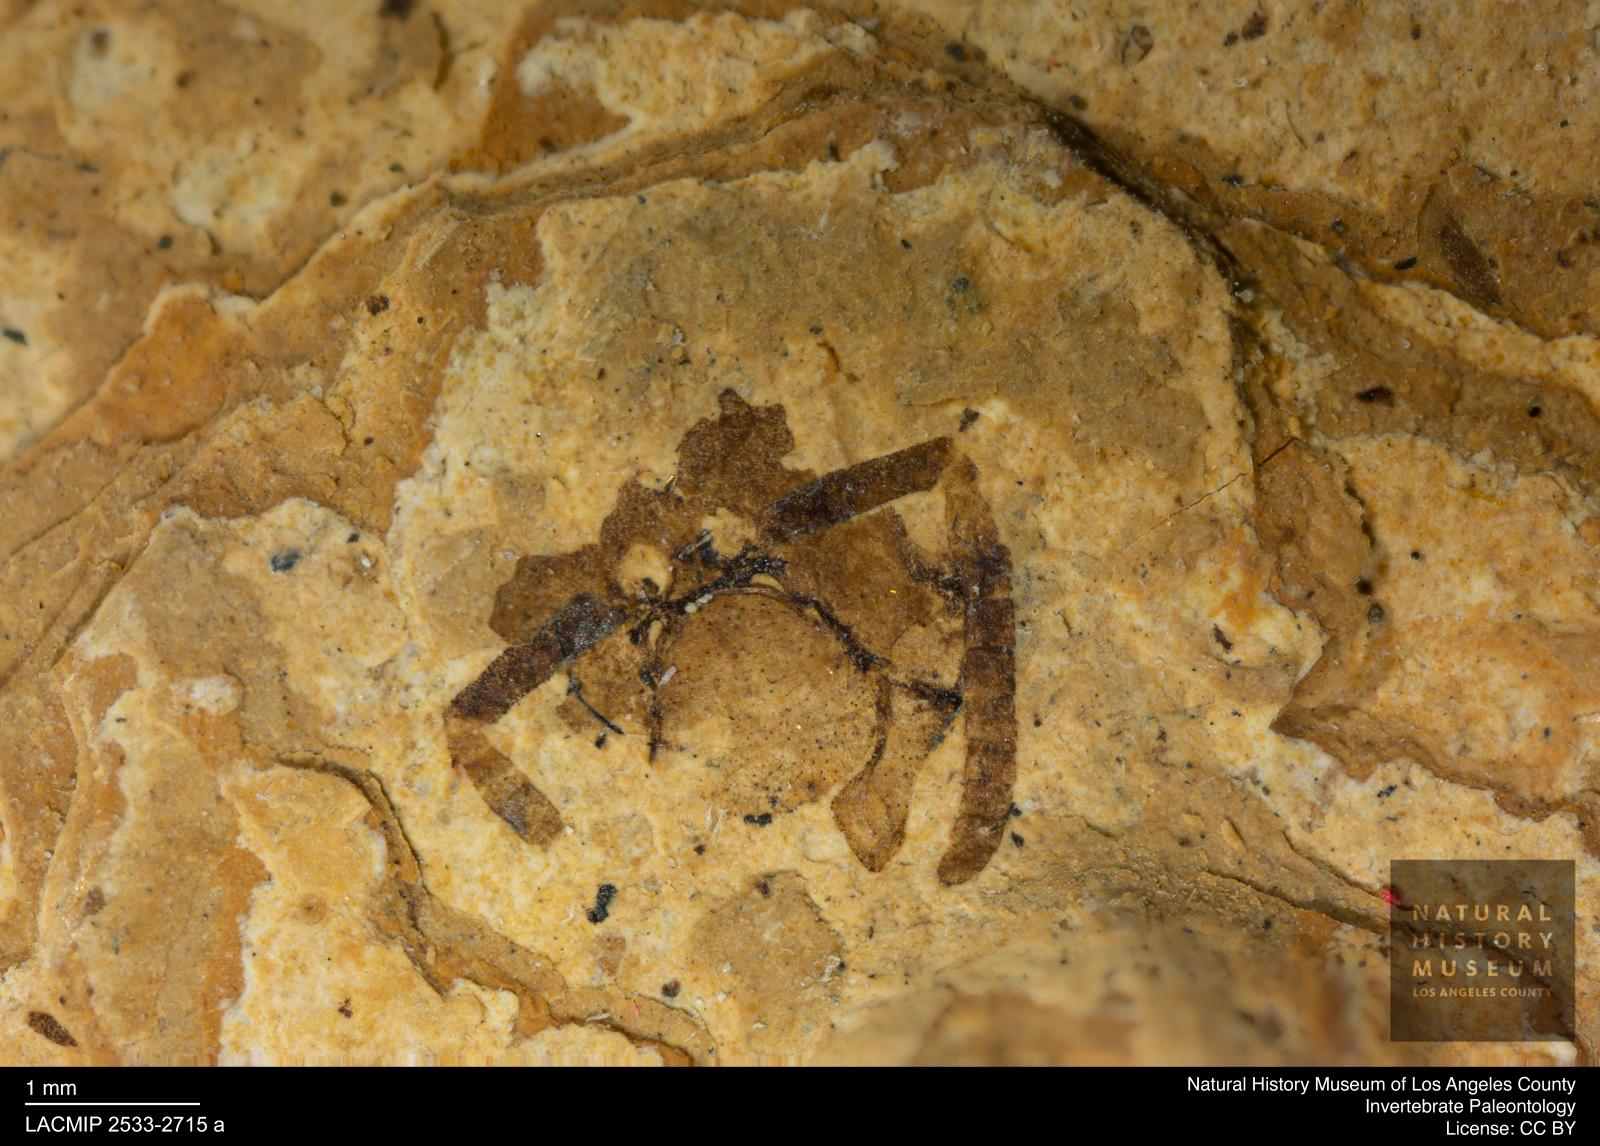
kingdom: Animalia
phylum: Arthropoda
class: Insecta
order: Hymenoptera
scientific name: Hymenoptera
